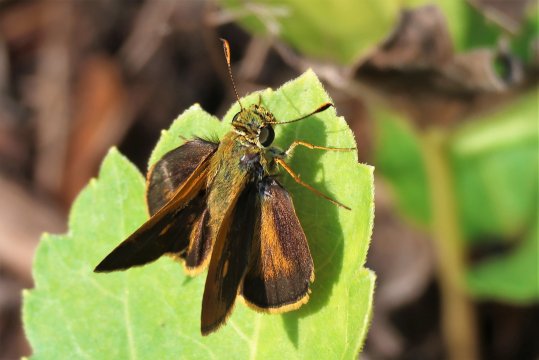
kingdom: Animalia
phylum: Arthropoda
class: Insecta
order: Lepidoptera
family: Hesperiidae
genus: Wallengrenia
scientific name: Wallengrenia otho
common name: Southern Broken-Dash
